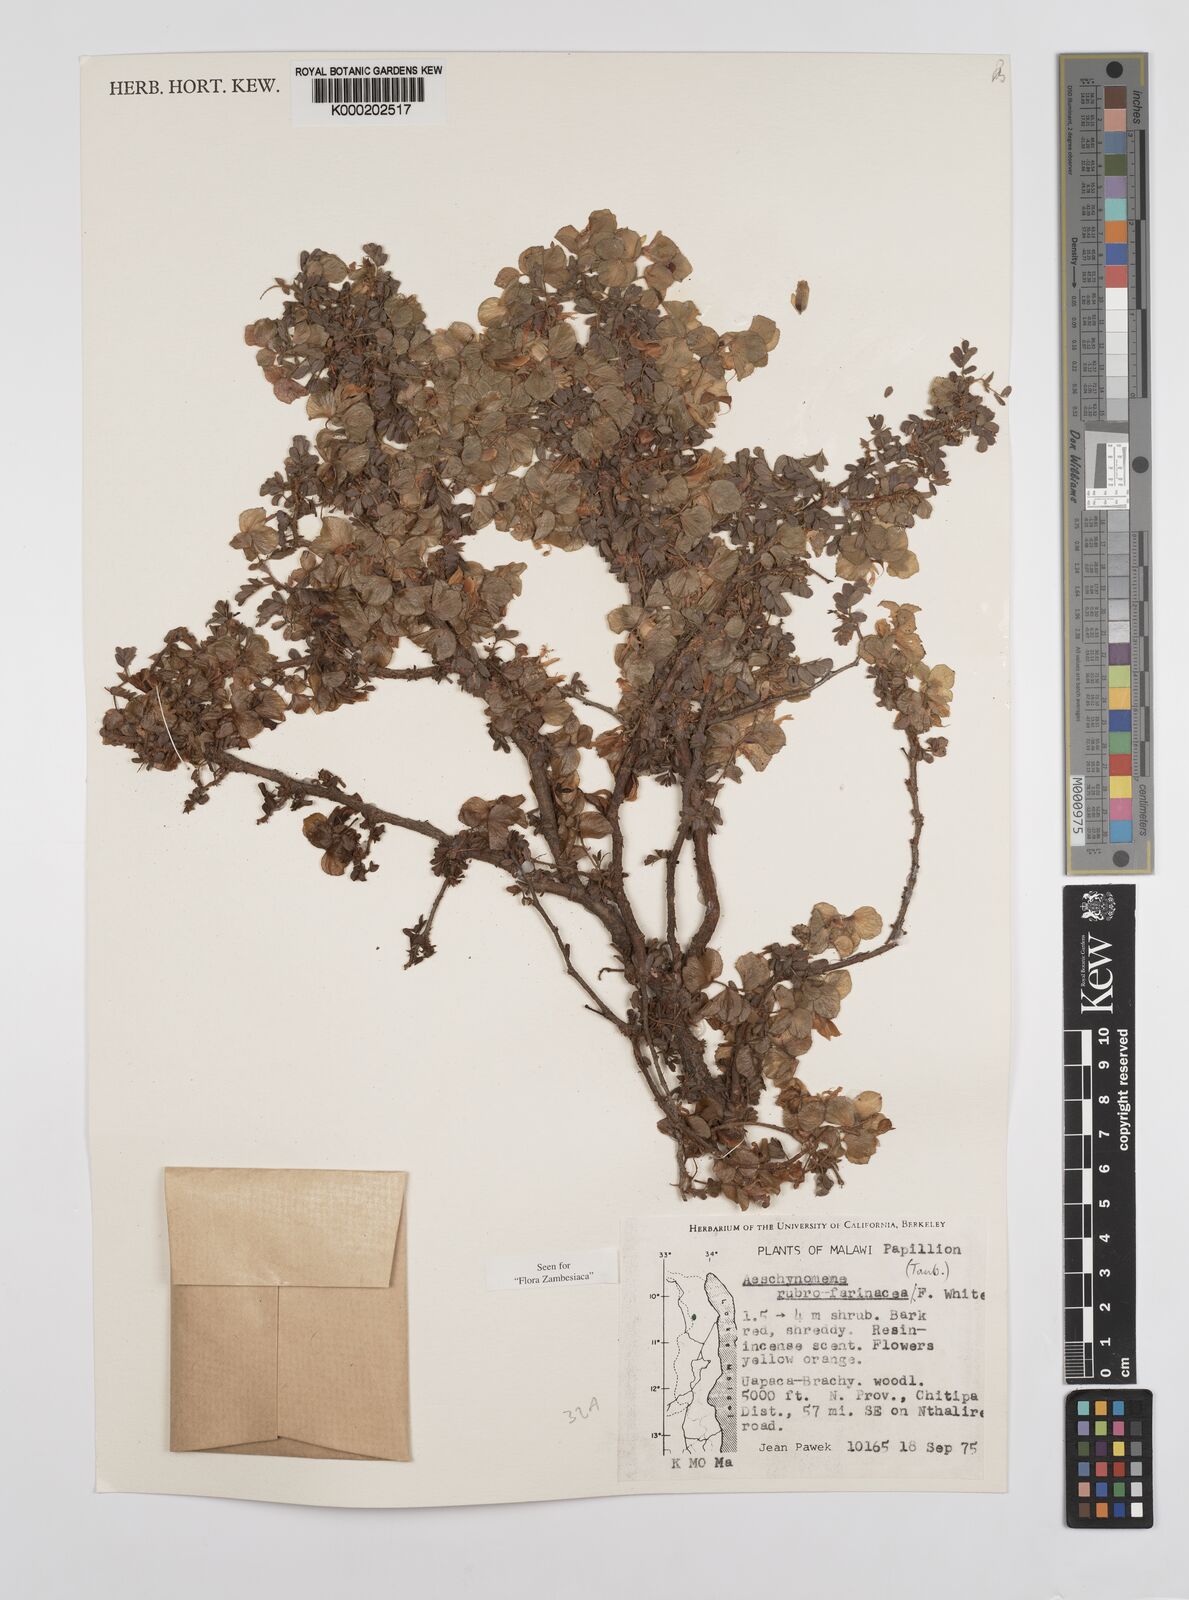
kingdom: Plantae
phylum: Tracheophyta
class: Magnoliopsida
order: Fabales
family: Fabaceae
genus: Aeschynomene
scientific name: Aeschynomene rubrofarinacea
